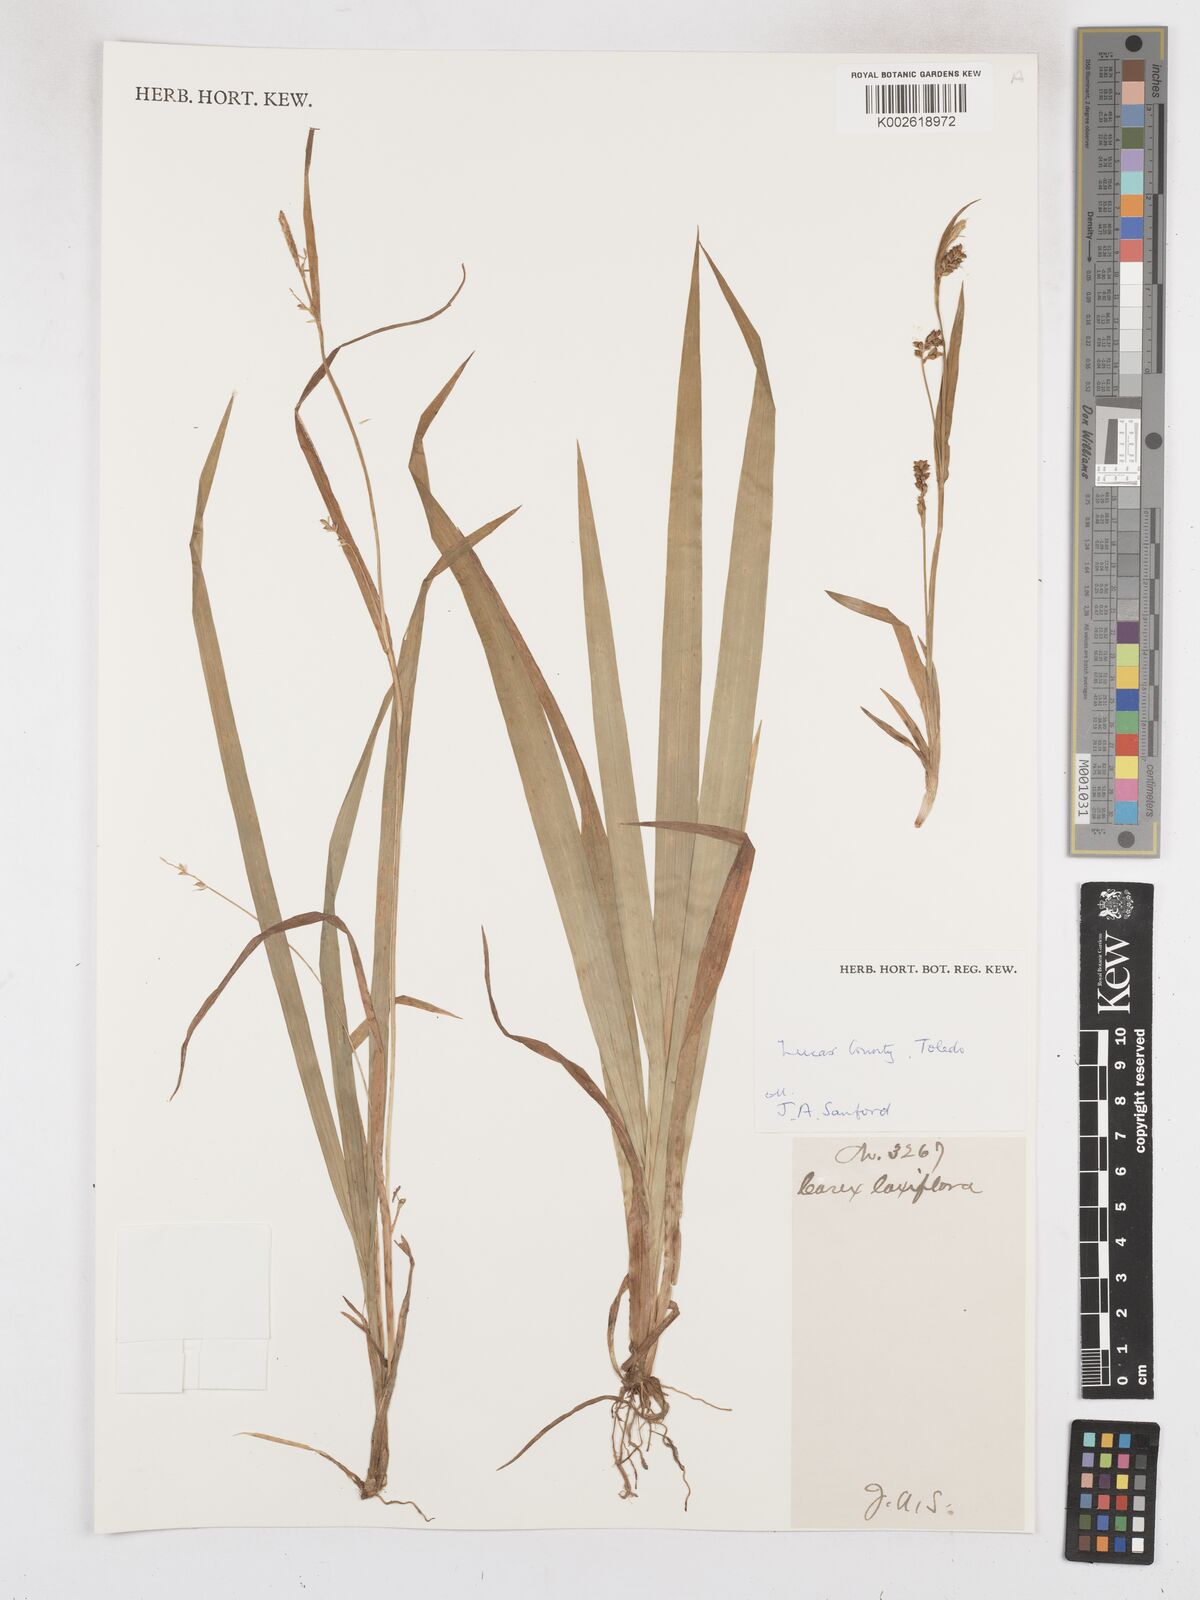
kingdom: Plantae
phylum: Tracheophyta
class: Liliopsida
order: Poales
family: Cyperaceae
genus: Carex
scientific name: Carex laxiflora
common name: Beech wood sedge
